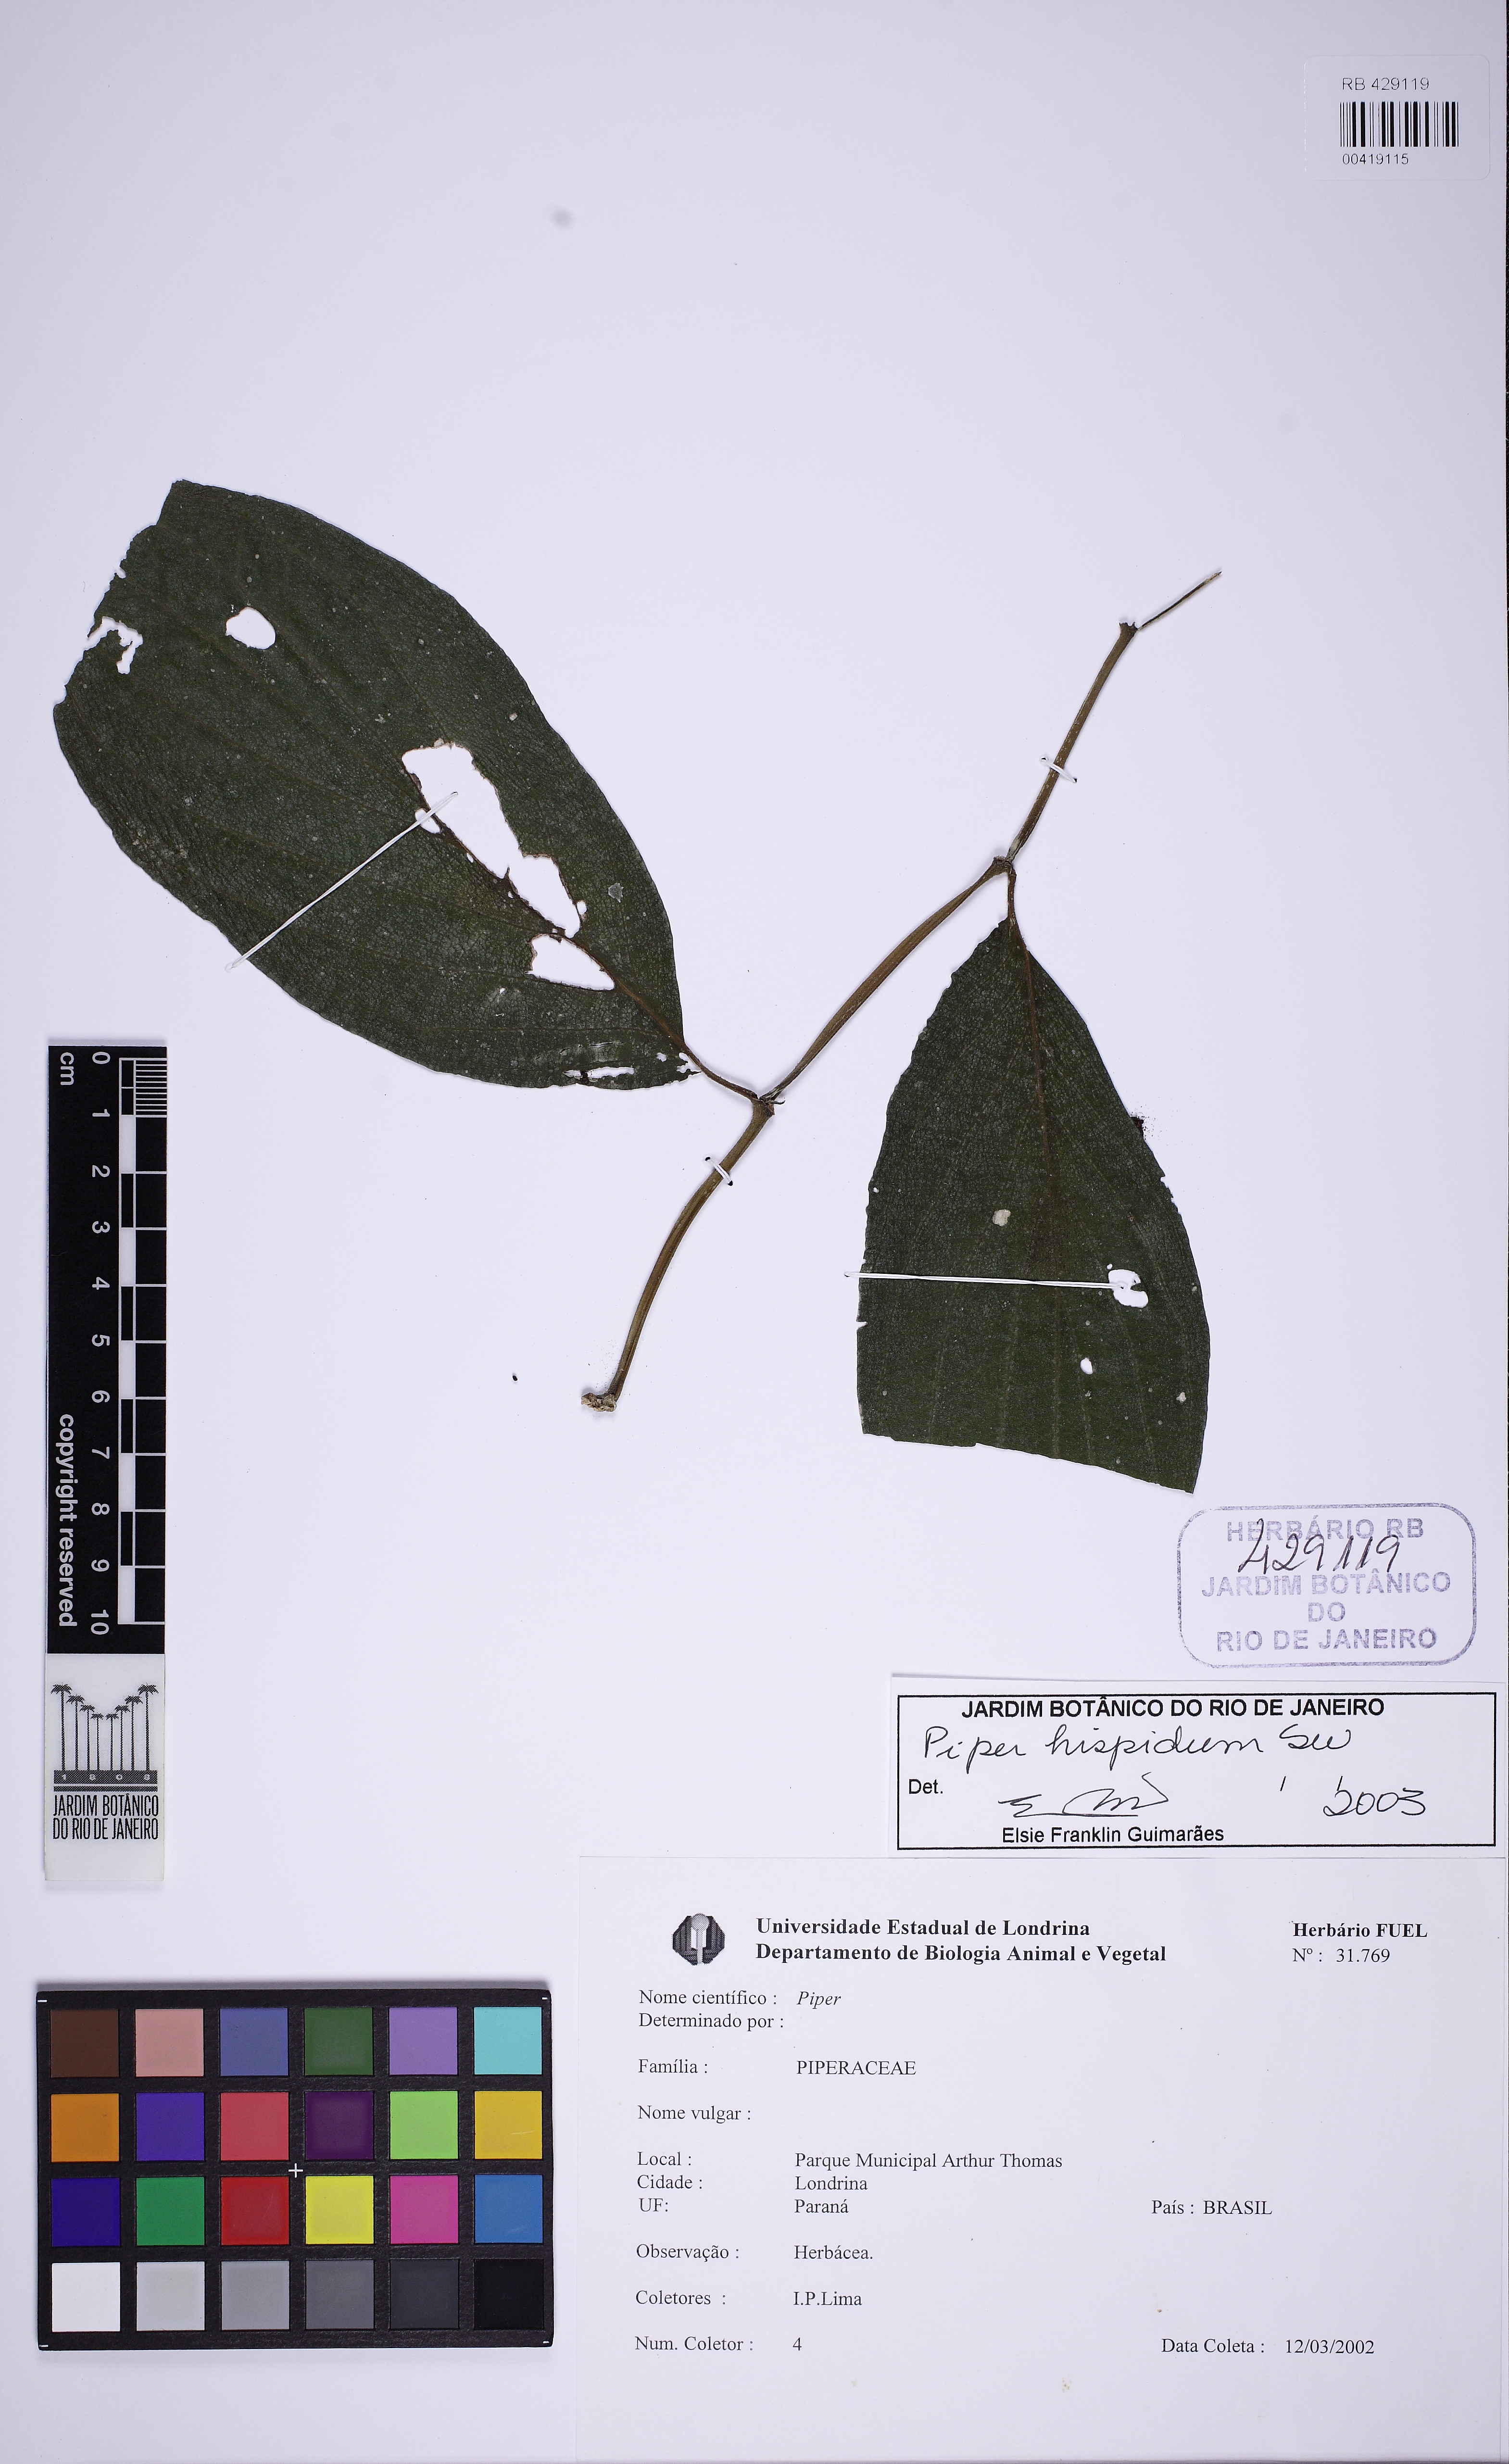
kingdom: Plantae
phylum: Tracheophyta
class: Magnoliopsida
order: Piperales
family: Piperaceae
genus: Piper
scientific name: Piper hispidum
